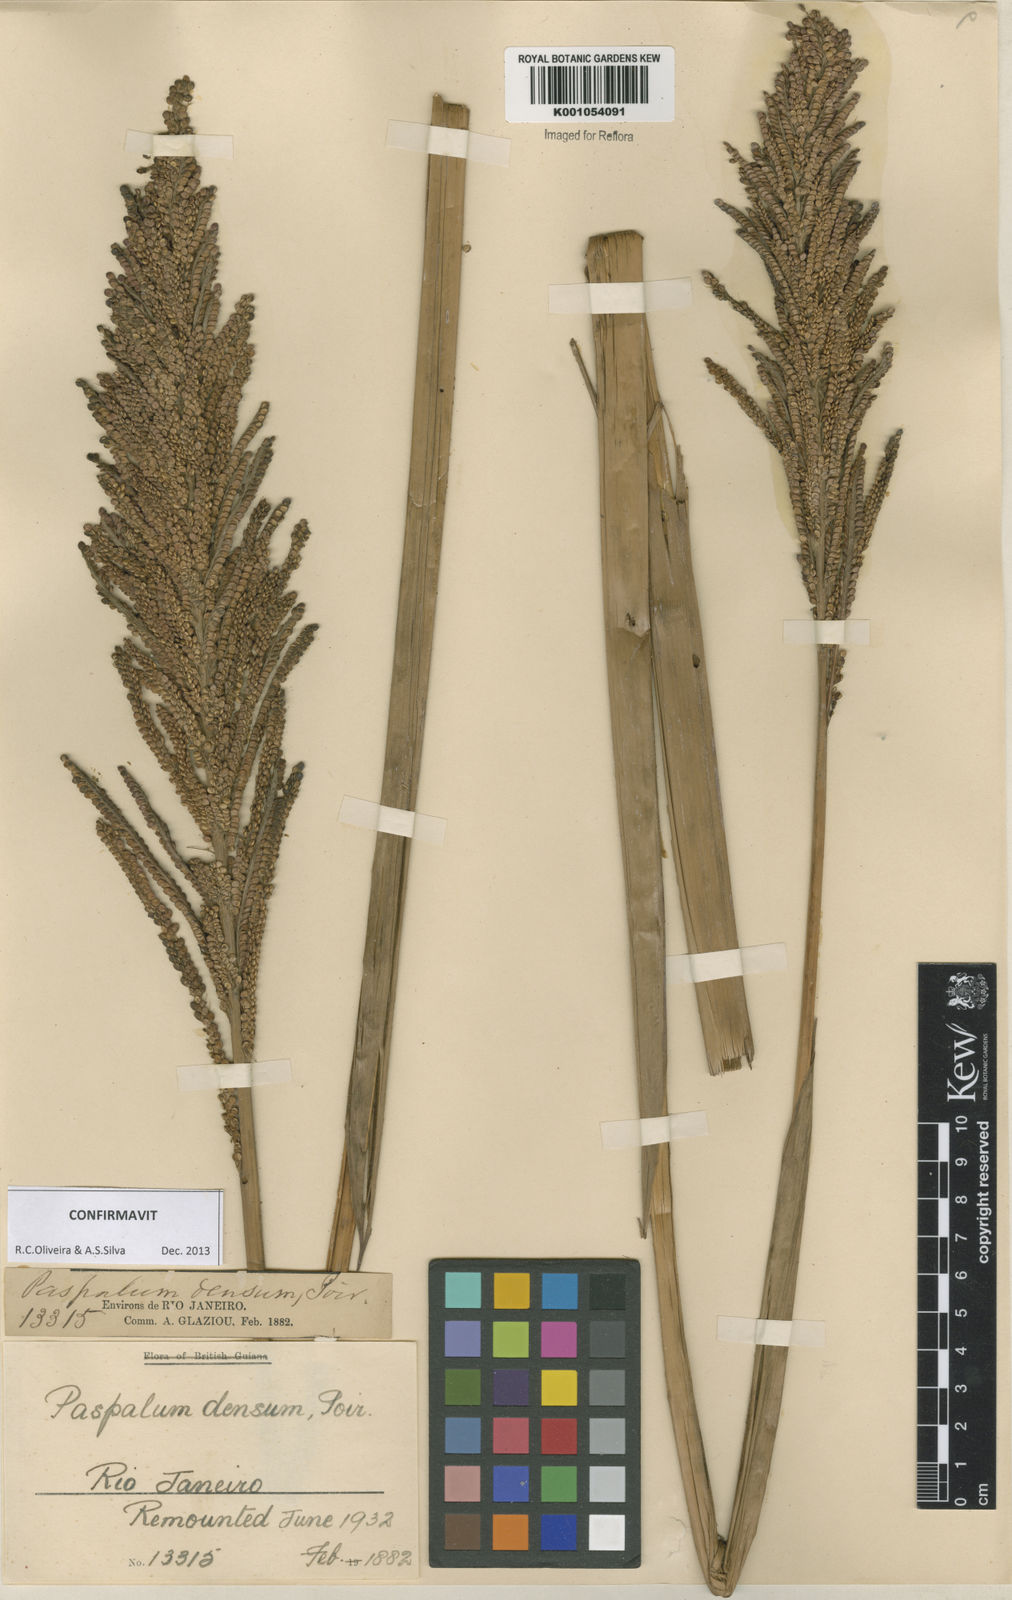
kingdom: Plantae
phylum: Tracheophyta
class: Liliopsida
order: Poales
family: Poaceae
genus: Paspalum
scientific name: Paspalum densum
